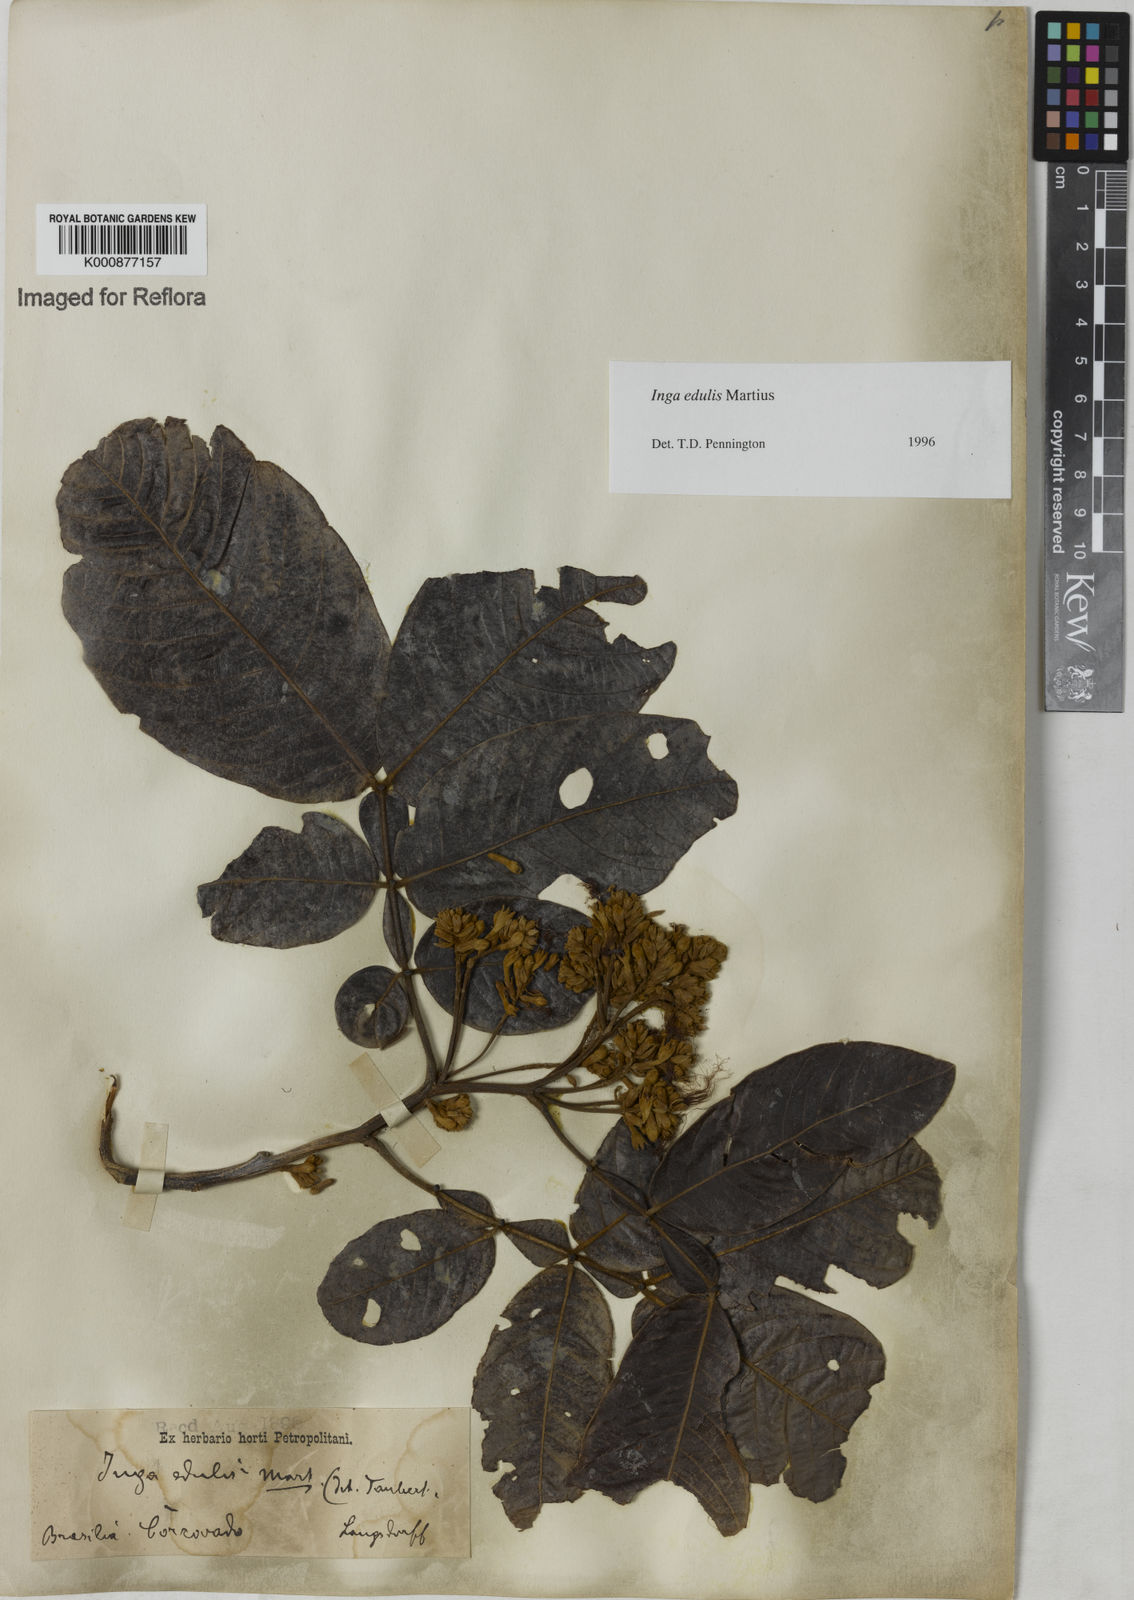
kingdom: Plantae
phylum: Tracheophyta
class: Magnoliopsida
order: Fabales
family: Fabaceae
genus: Inga
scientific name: Inga edulis
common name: Ice cream bean
